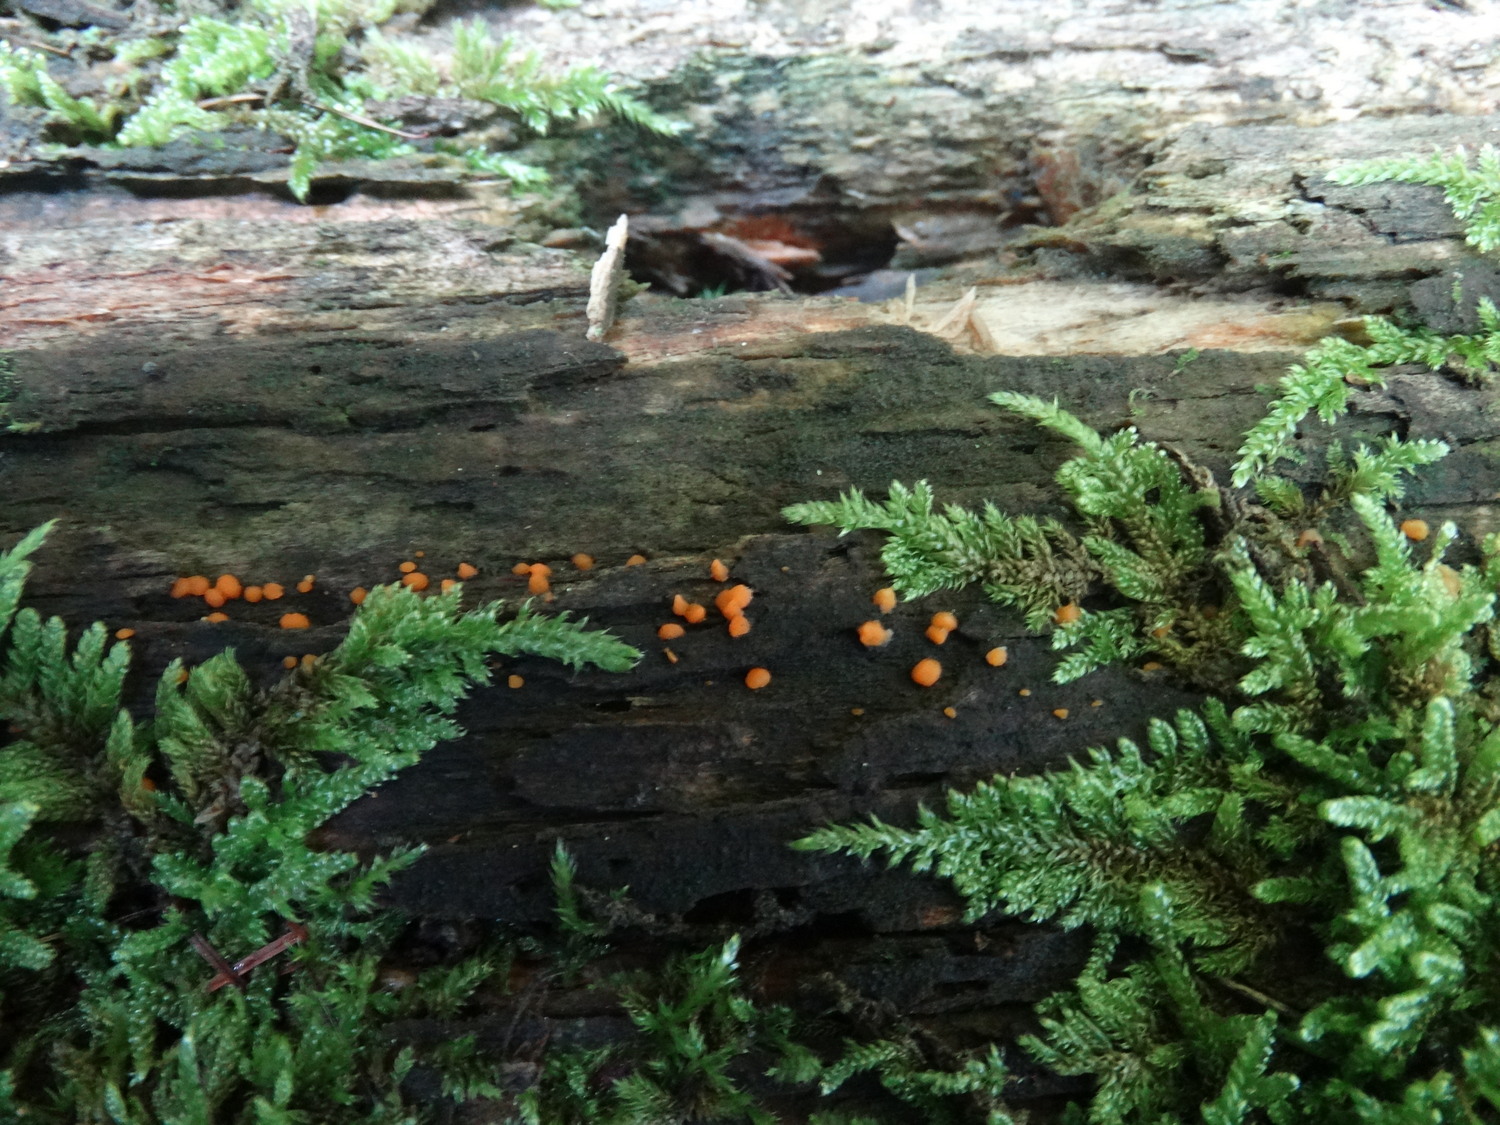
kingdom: Fungi
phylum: Basidiomycota
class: Dacrymycetes
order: Dacrymycetales
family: Dacrymycetaceae
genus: Dacrymyces
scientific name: Dacrymyces stillatus
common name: almindelig tåresvamp
